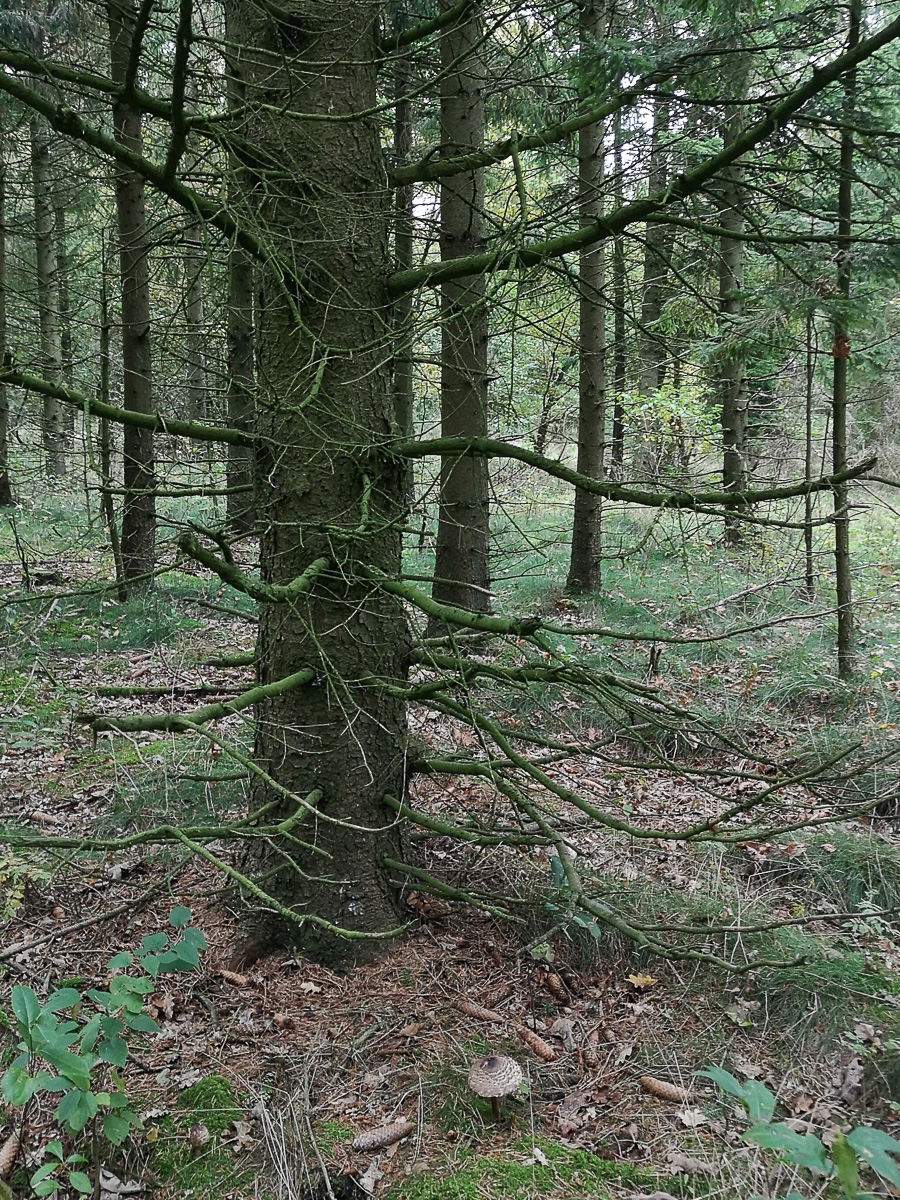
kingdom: Fungi
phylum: Basidiomycota
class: Agaricomycetes
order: Agaricales
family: Agaricaceae
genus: Chlorophyllum
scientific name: Chlorophyllum olivieri
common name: almindelig rabarberhat
